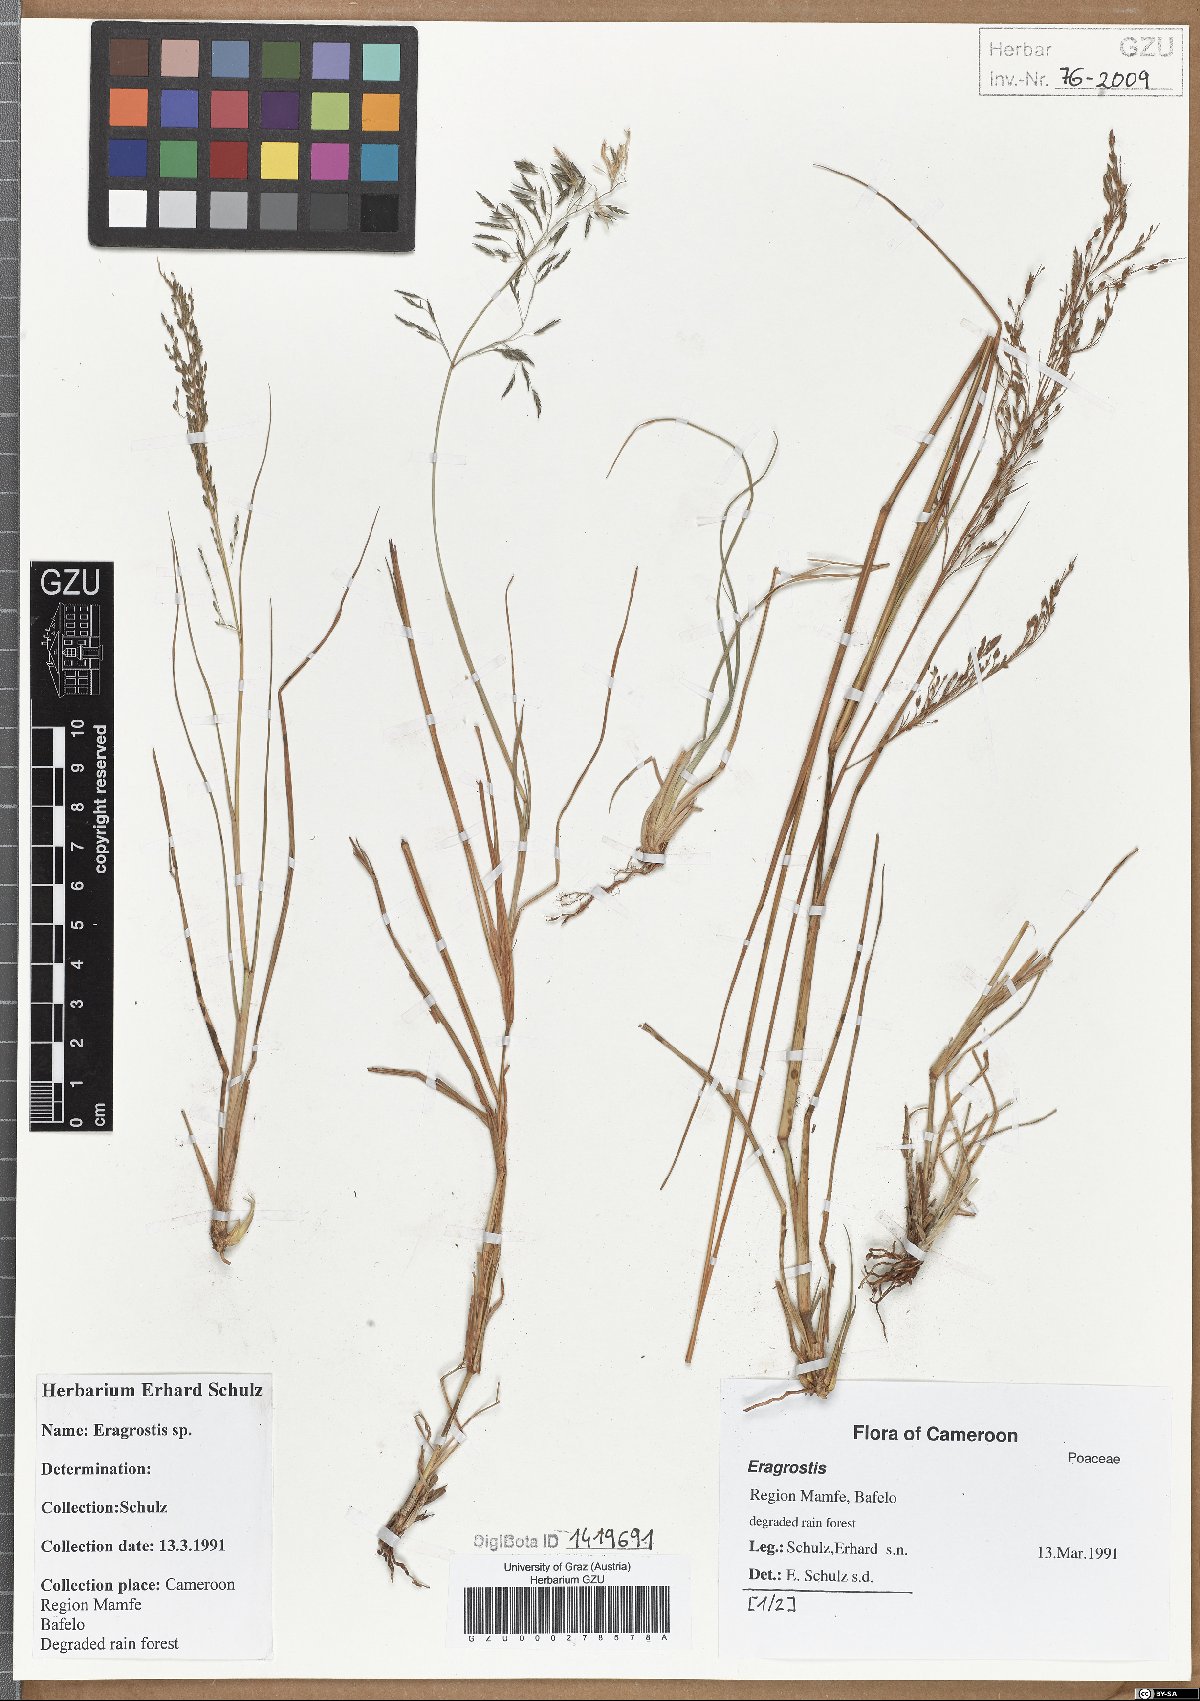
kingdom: Plantae
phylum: Tracheophyta
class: Liliopsida
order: Poales
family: Poaceae
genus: Eragrostis
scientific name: Eragrostis
